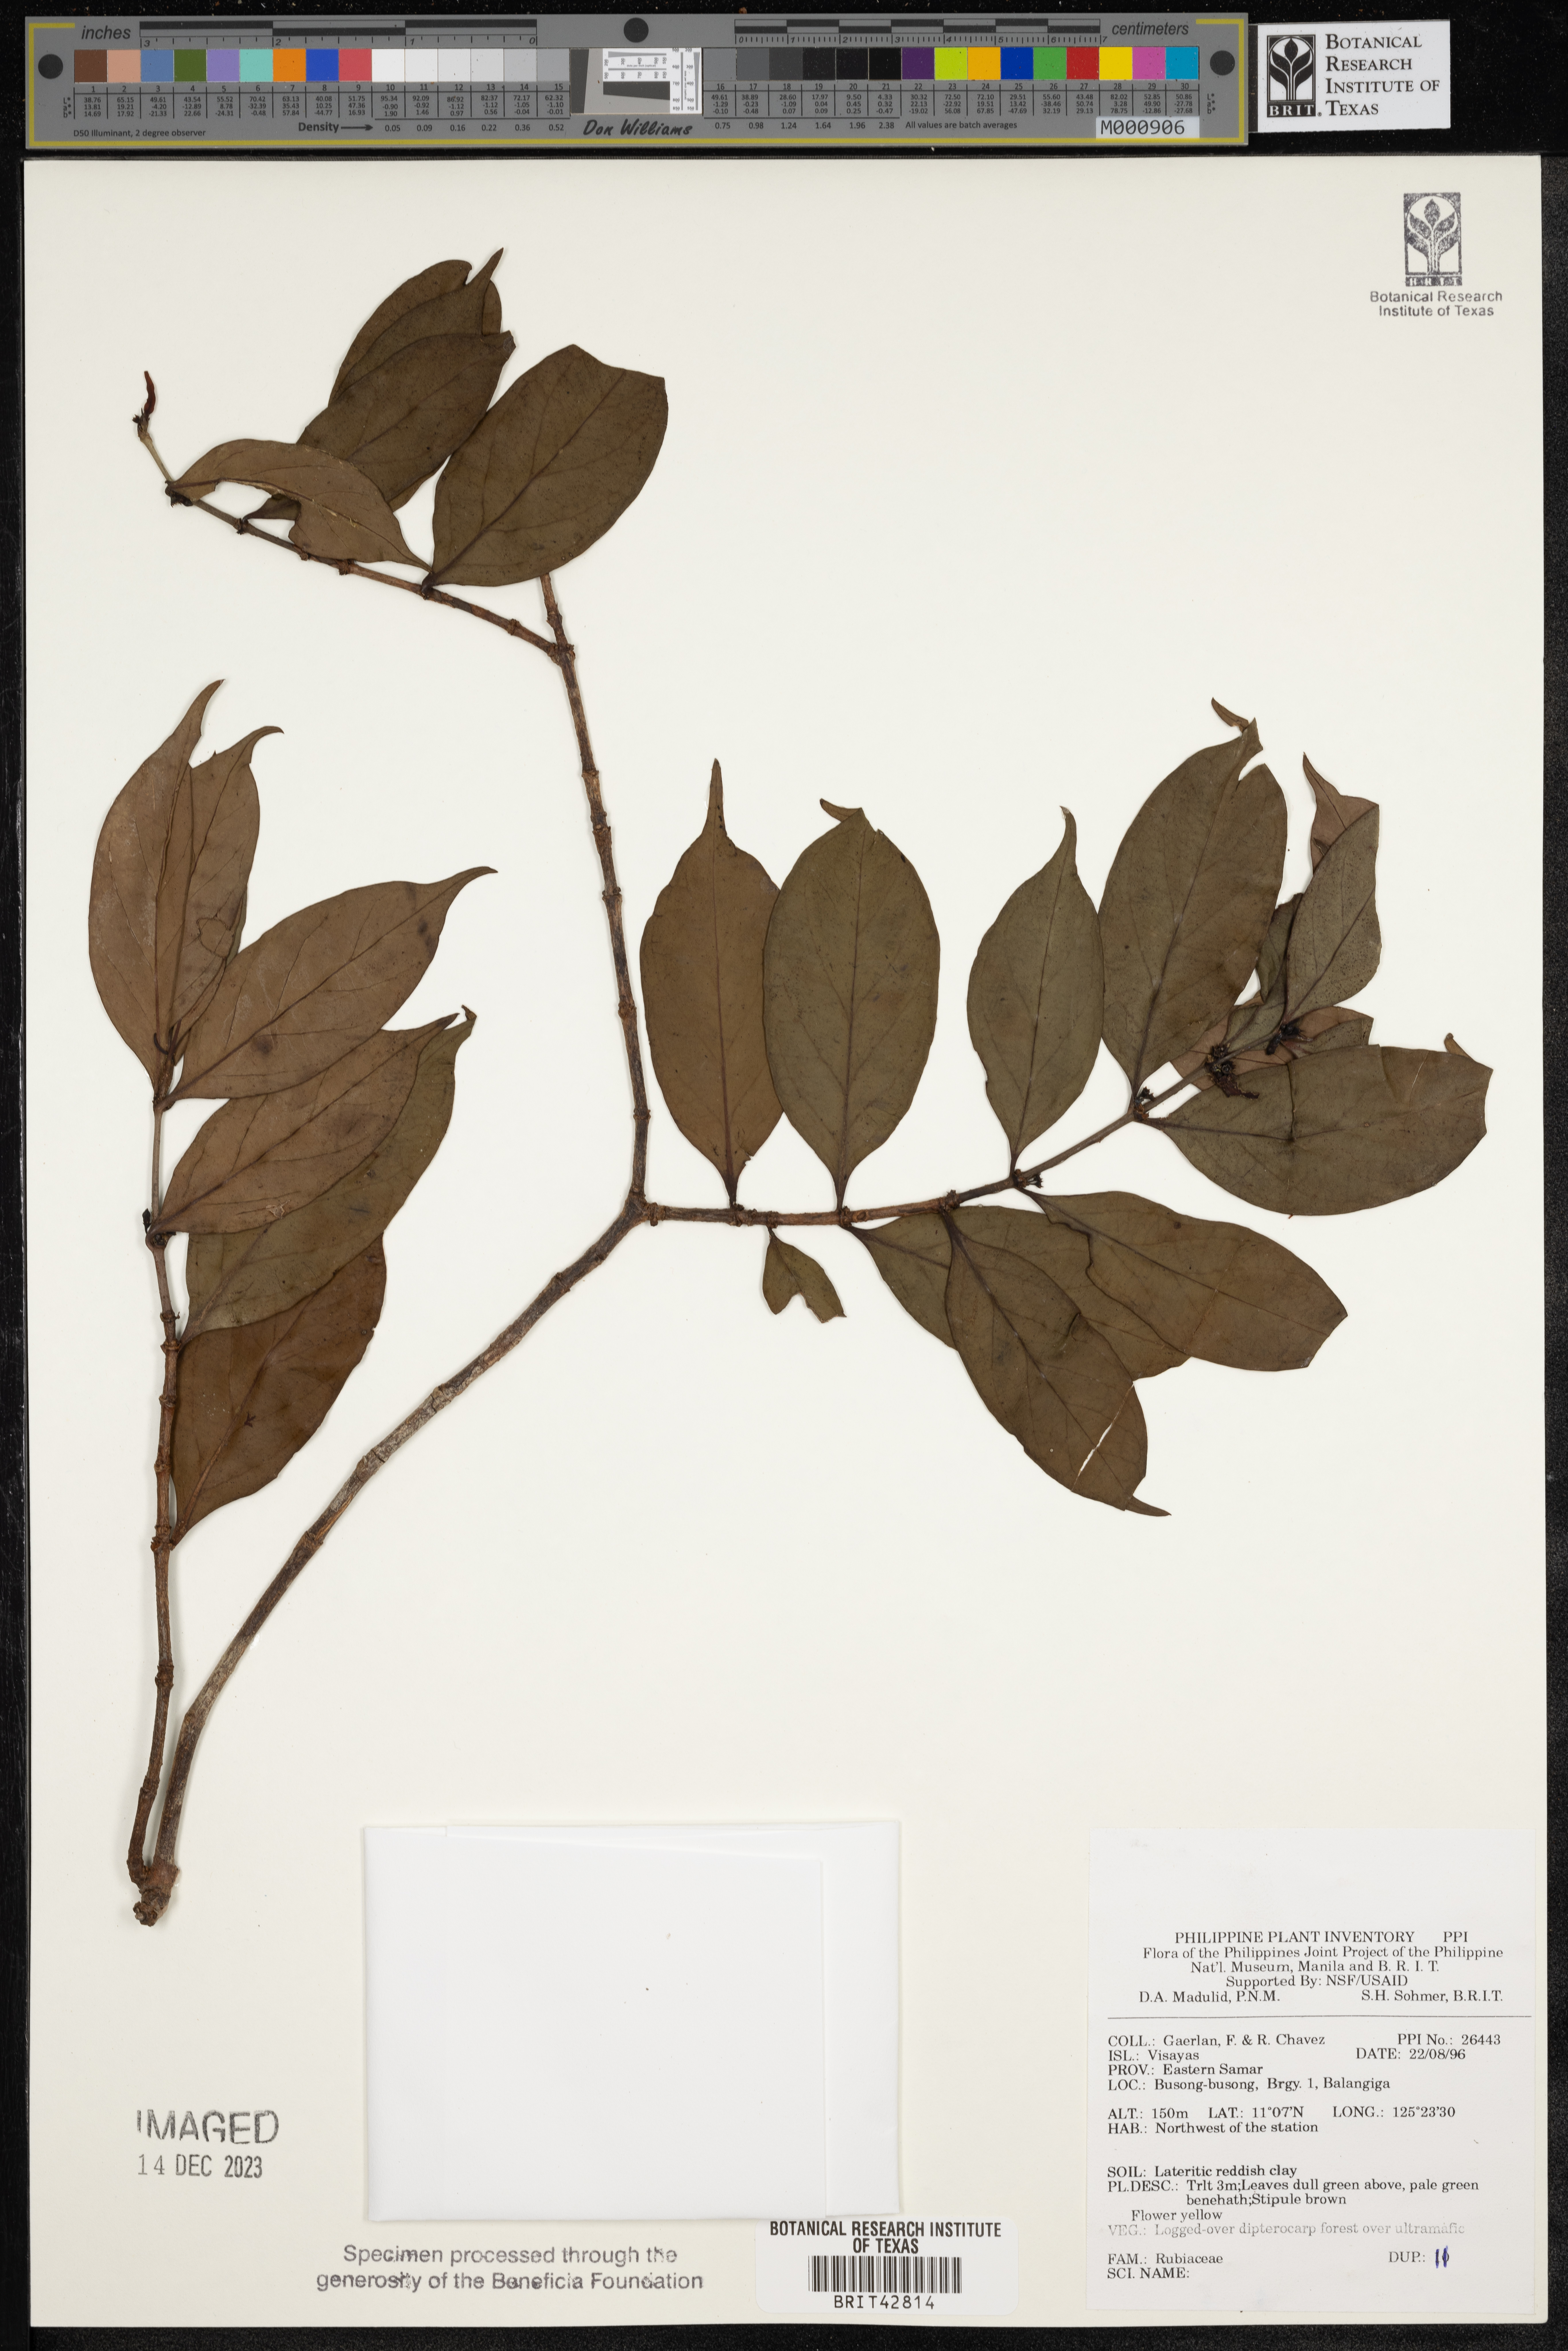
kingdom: Plantae
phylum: Tracheophyta
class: Magnoliopsida
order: Gentianales
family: Rubiaceae
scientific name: Rubiaceae
